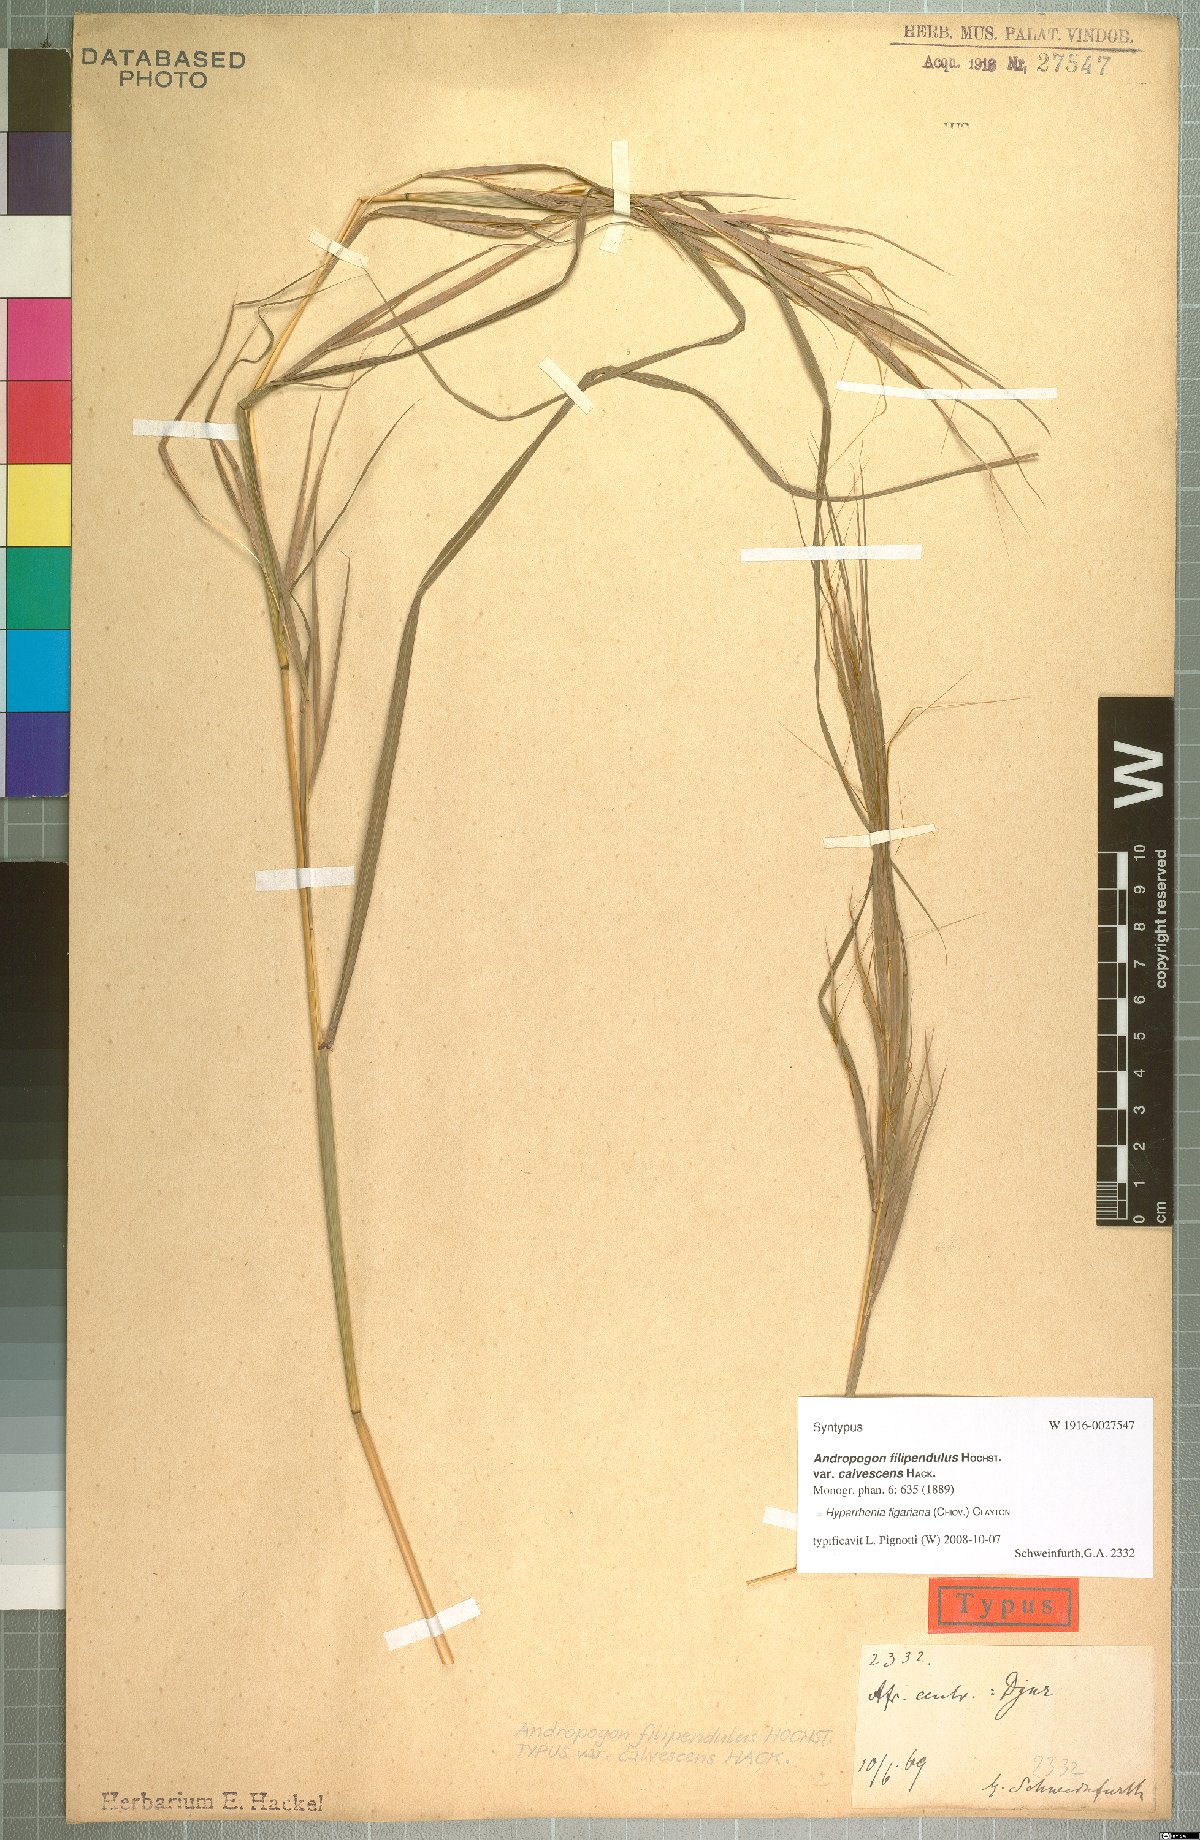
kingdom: Plantae
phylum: Tracheophyta
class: Liliopsida
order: Poales
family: Poaceae
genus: Hyparrhenia
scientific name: Hyparrhenia figariana
